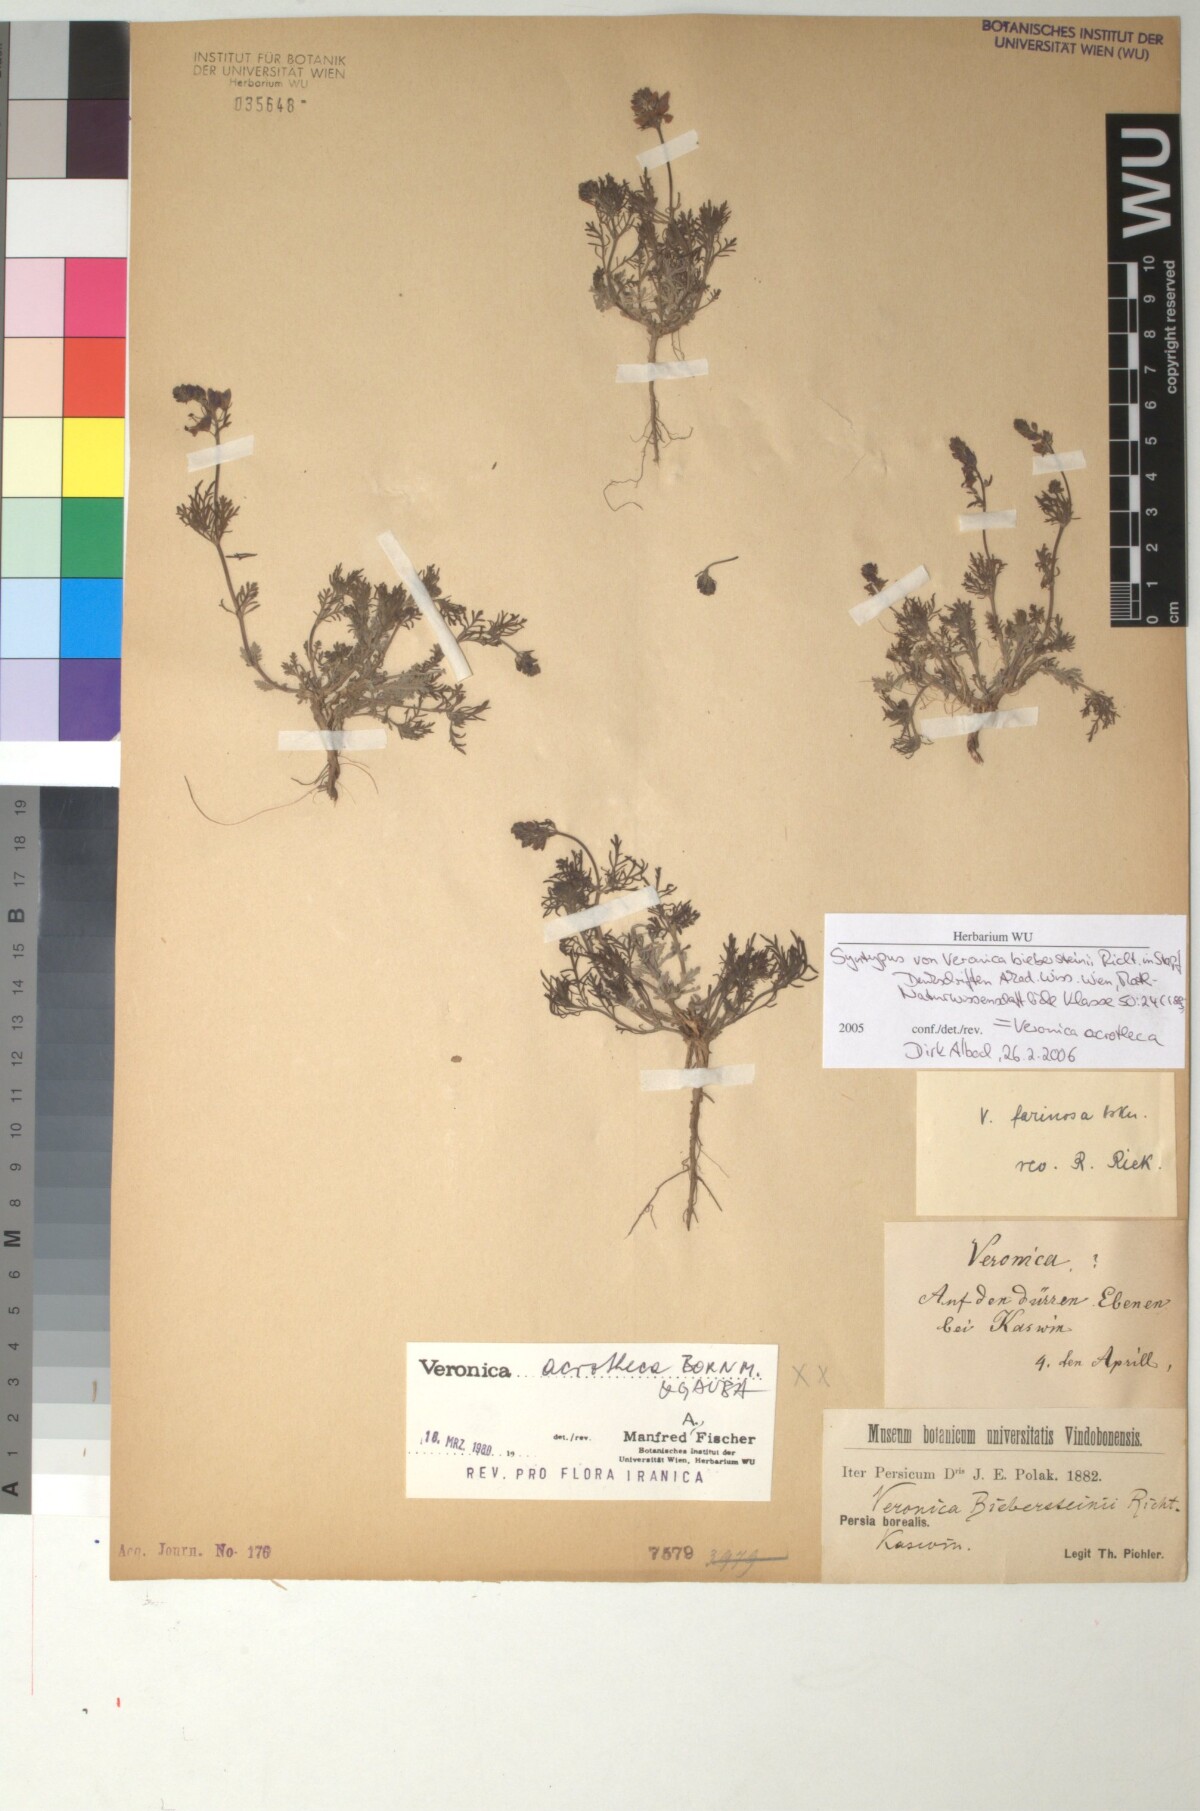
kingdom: Plantae
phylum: Tracheophyta
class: Magnoliopsida
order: Lamiales
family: Plantaginaceae
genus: Veronica
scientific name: Veronica multifida
